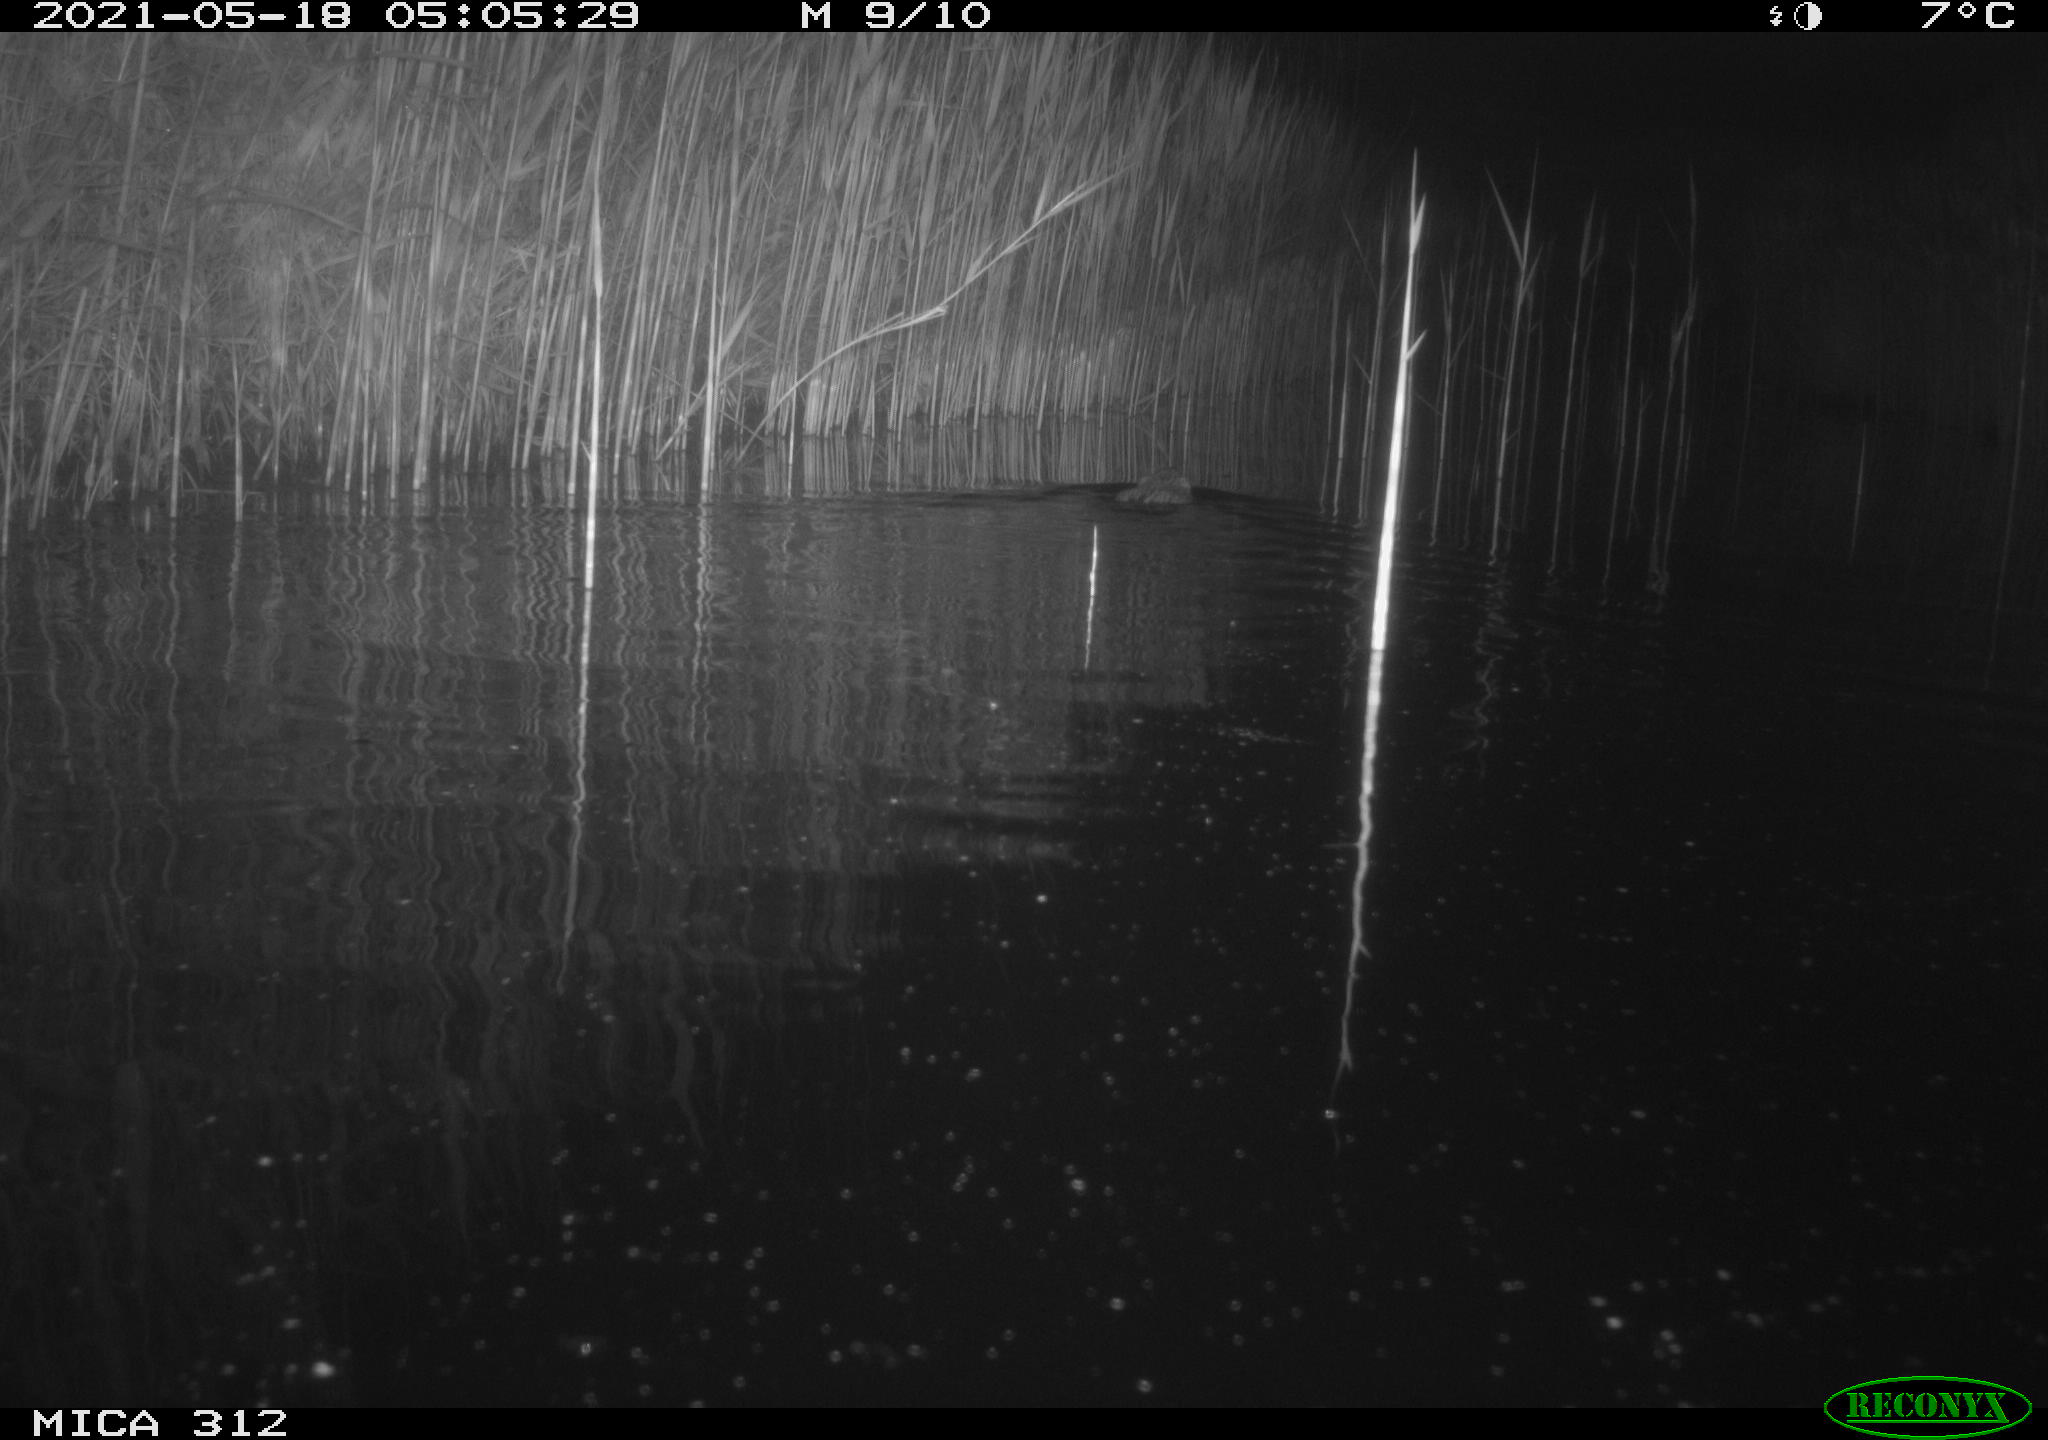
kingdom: Animalia
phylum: Chordata
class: Mammalia
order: Rodentia
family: Cricetidae
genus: Ondatra
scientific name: Ondatra zibethicus
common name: Muskrat
